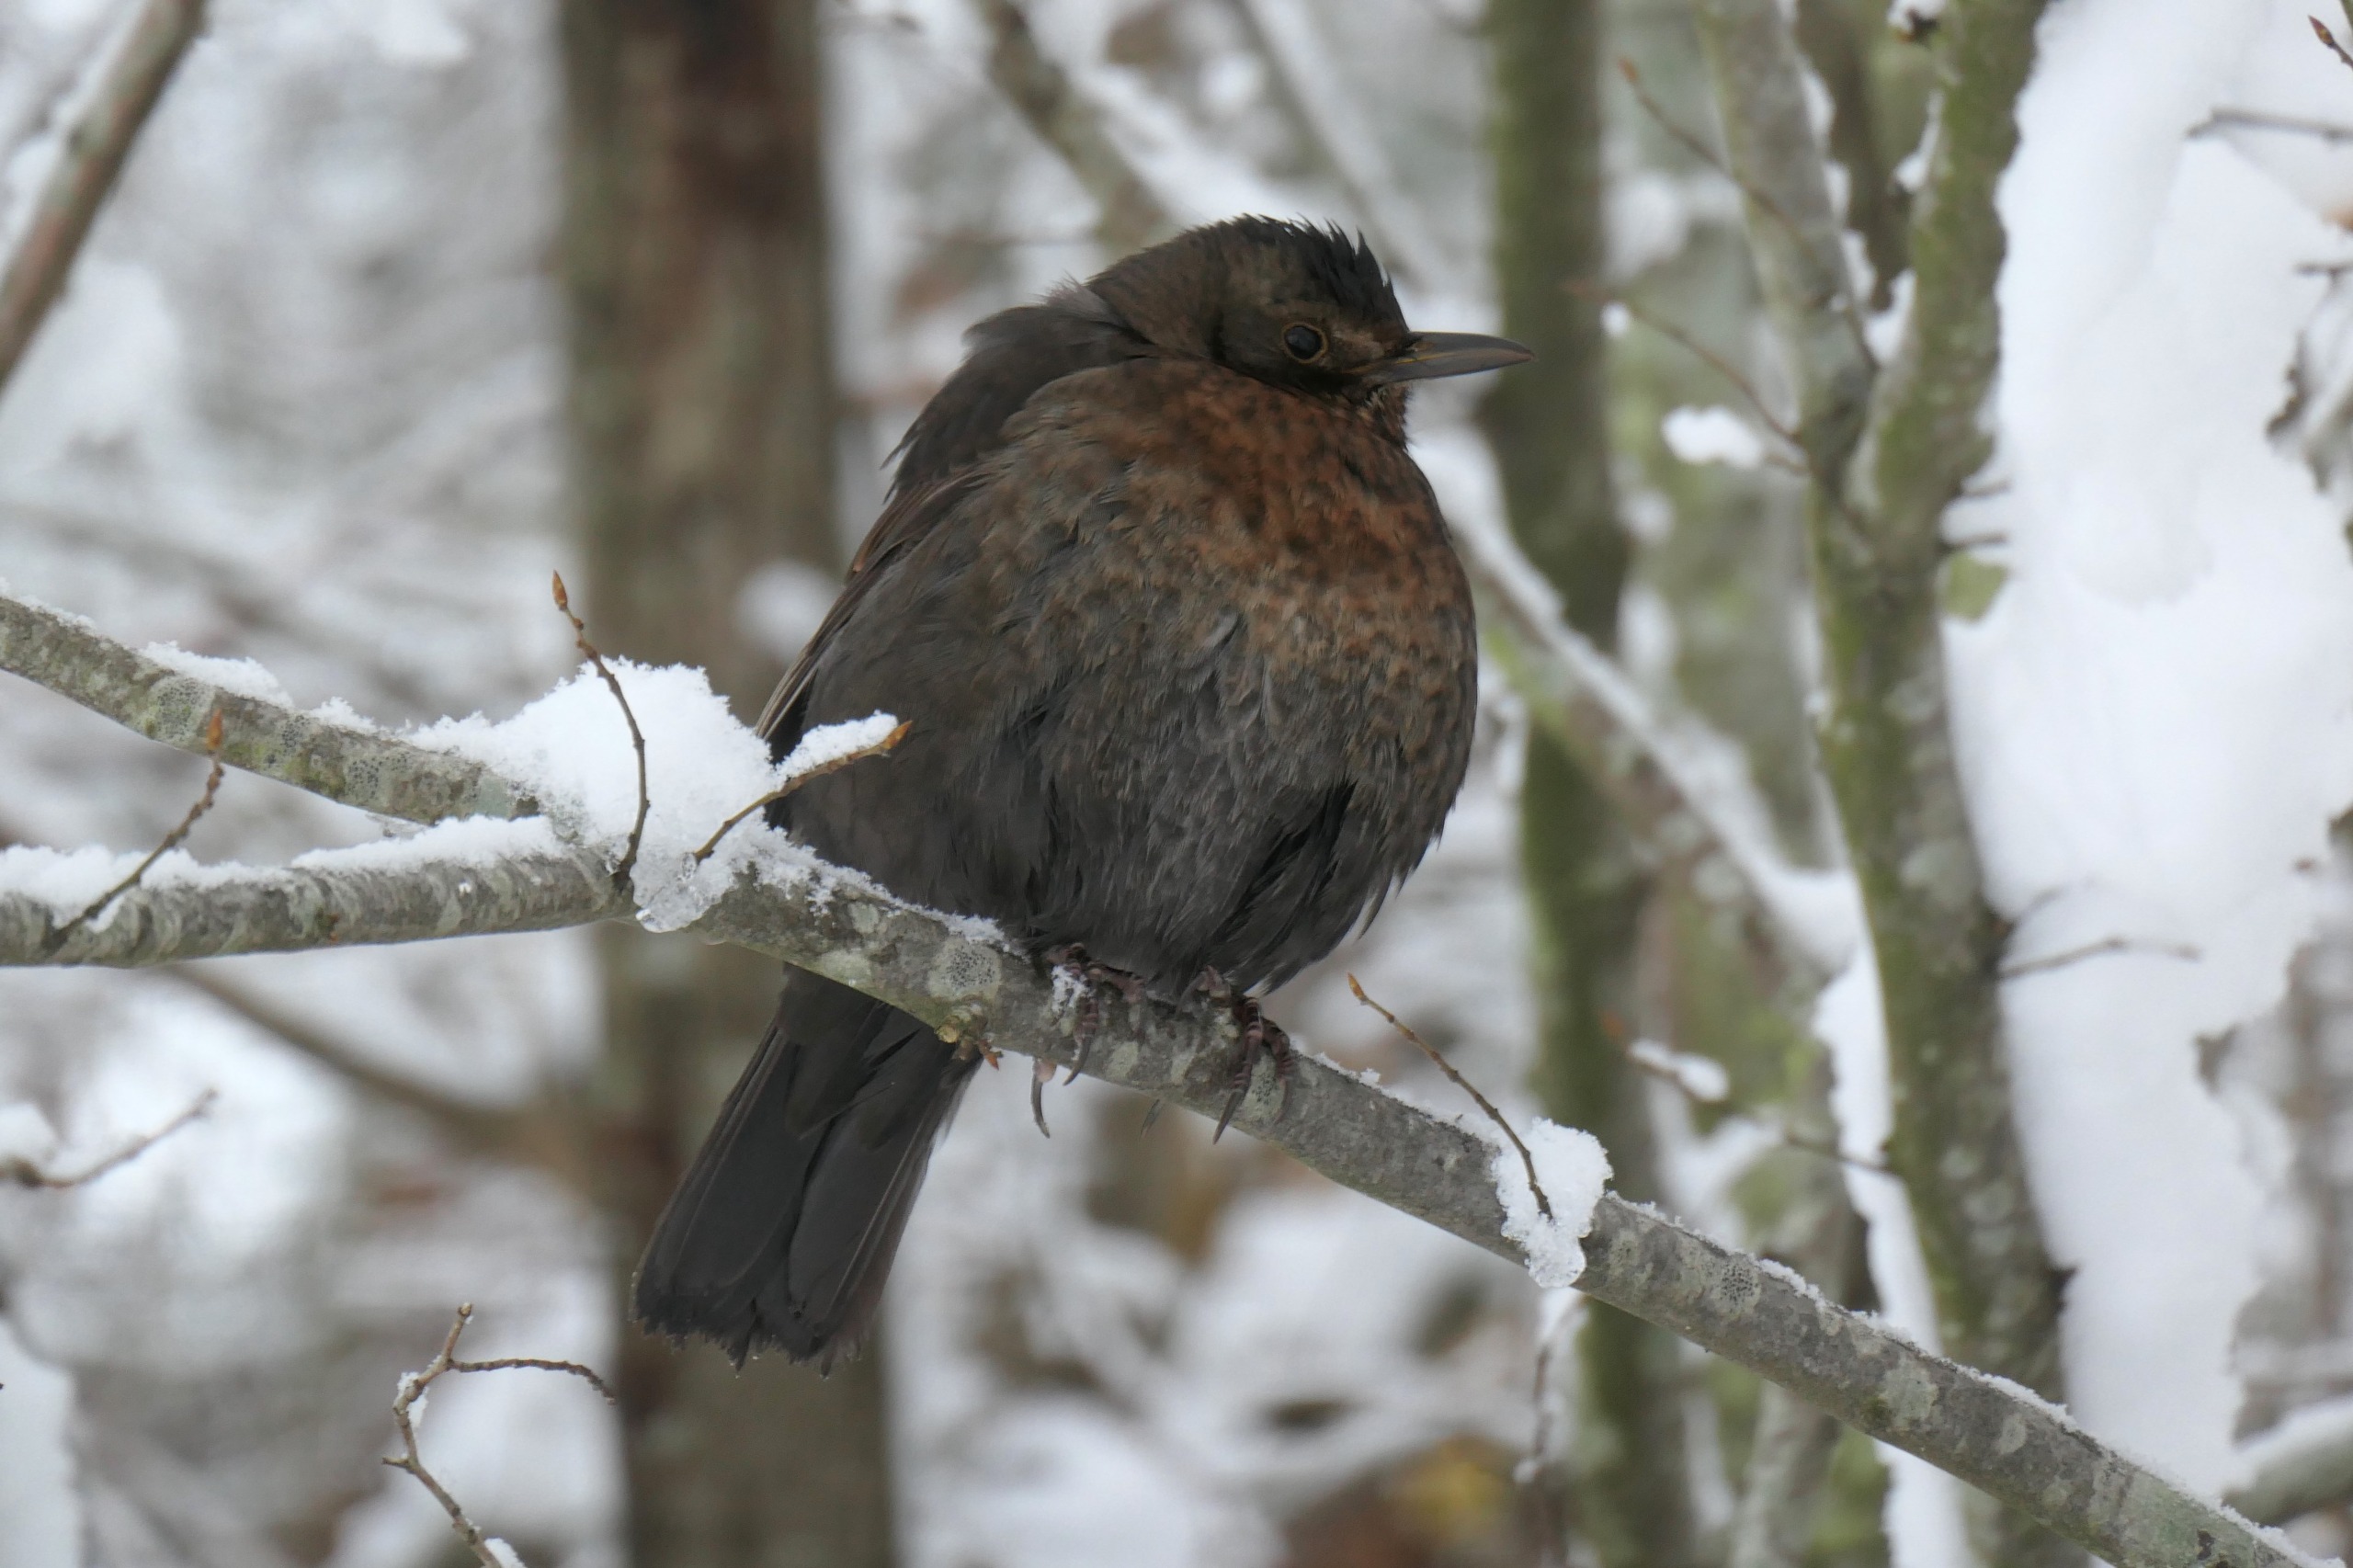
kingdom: Animalia
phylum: Chordata
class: Aves
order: Passeriformes
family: Turdidae
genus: Turdus
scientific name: Turdus merula
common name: Solsort
